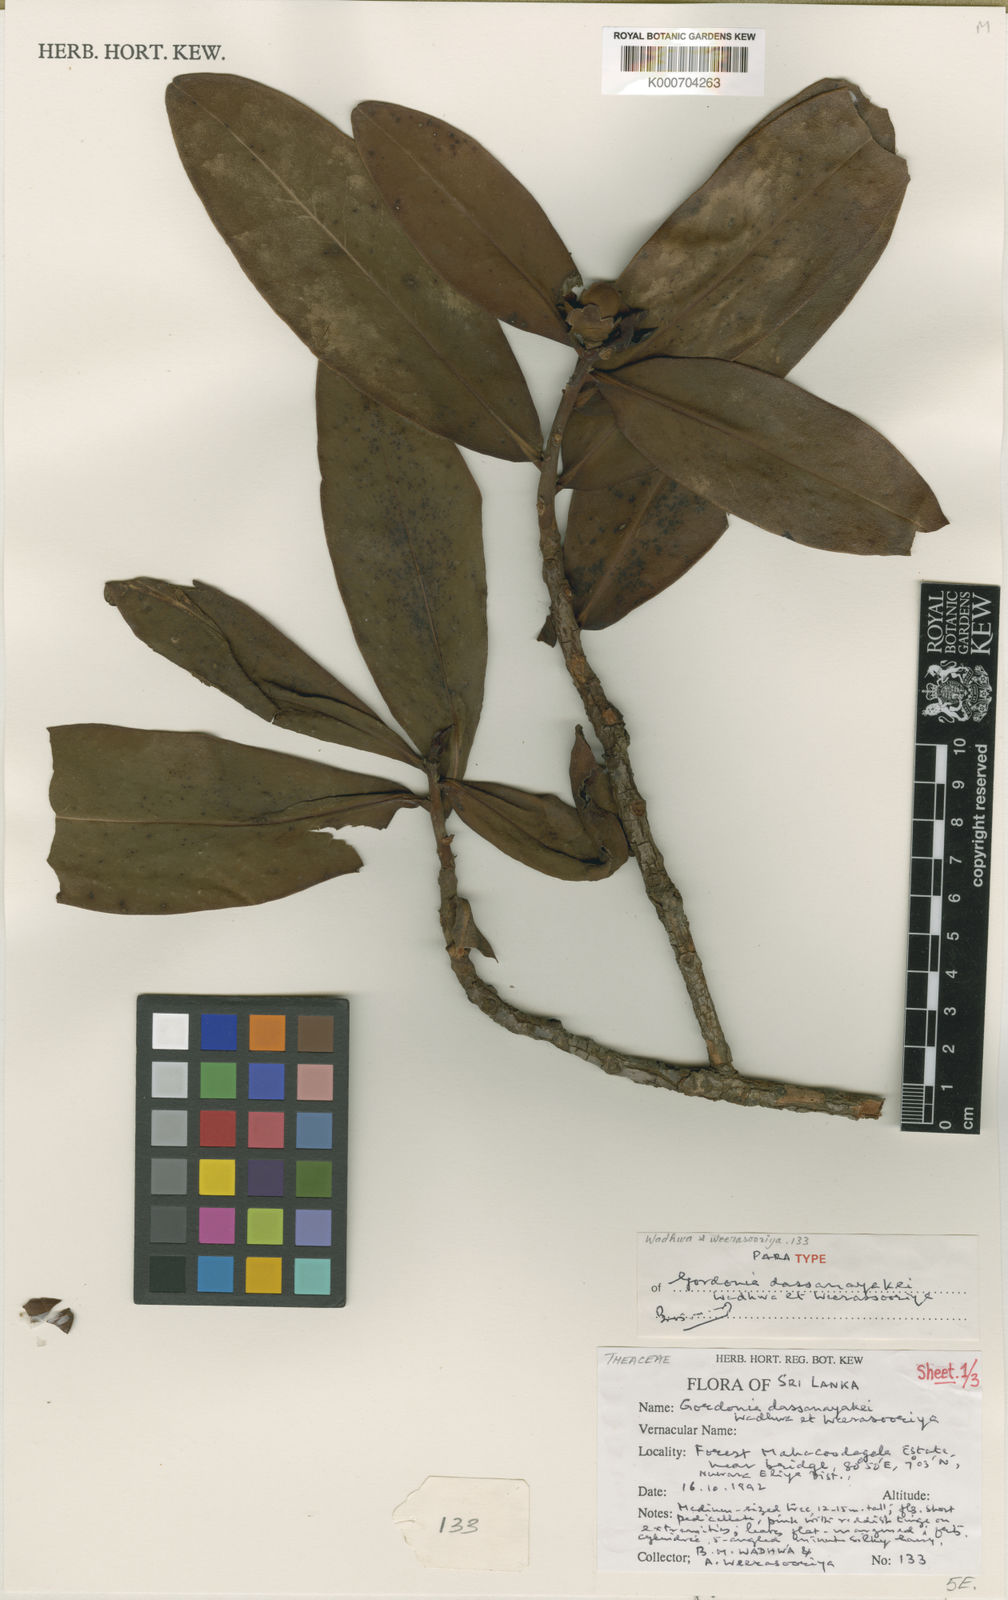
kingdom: Plantae
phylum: Tracheophyta
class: Magnoliopsida
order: Ericales
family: Theaceae
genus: Polyspora
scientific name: Polyspora dassanayakei
